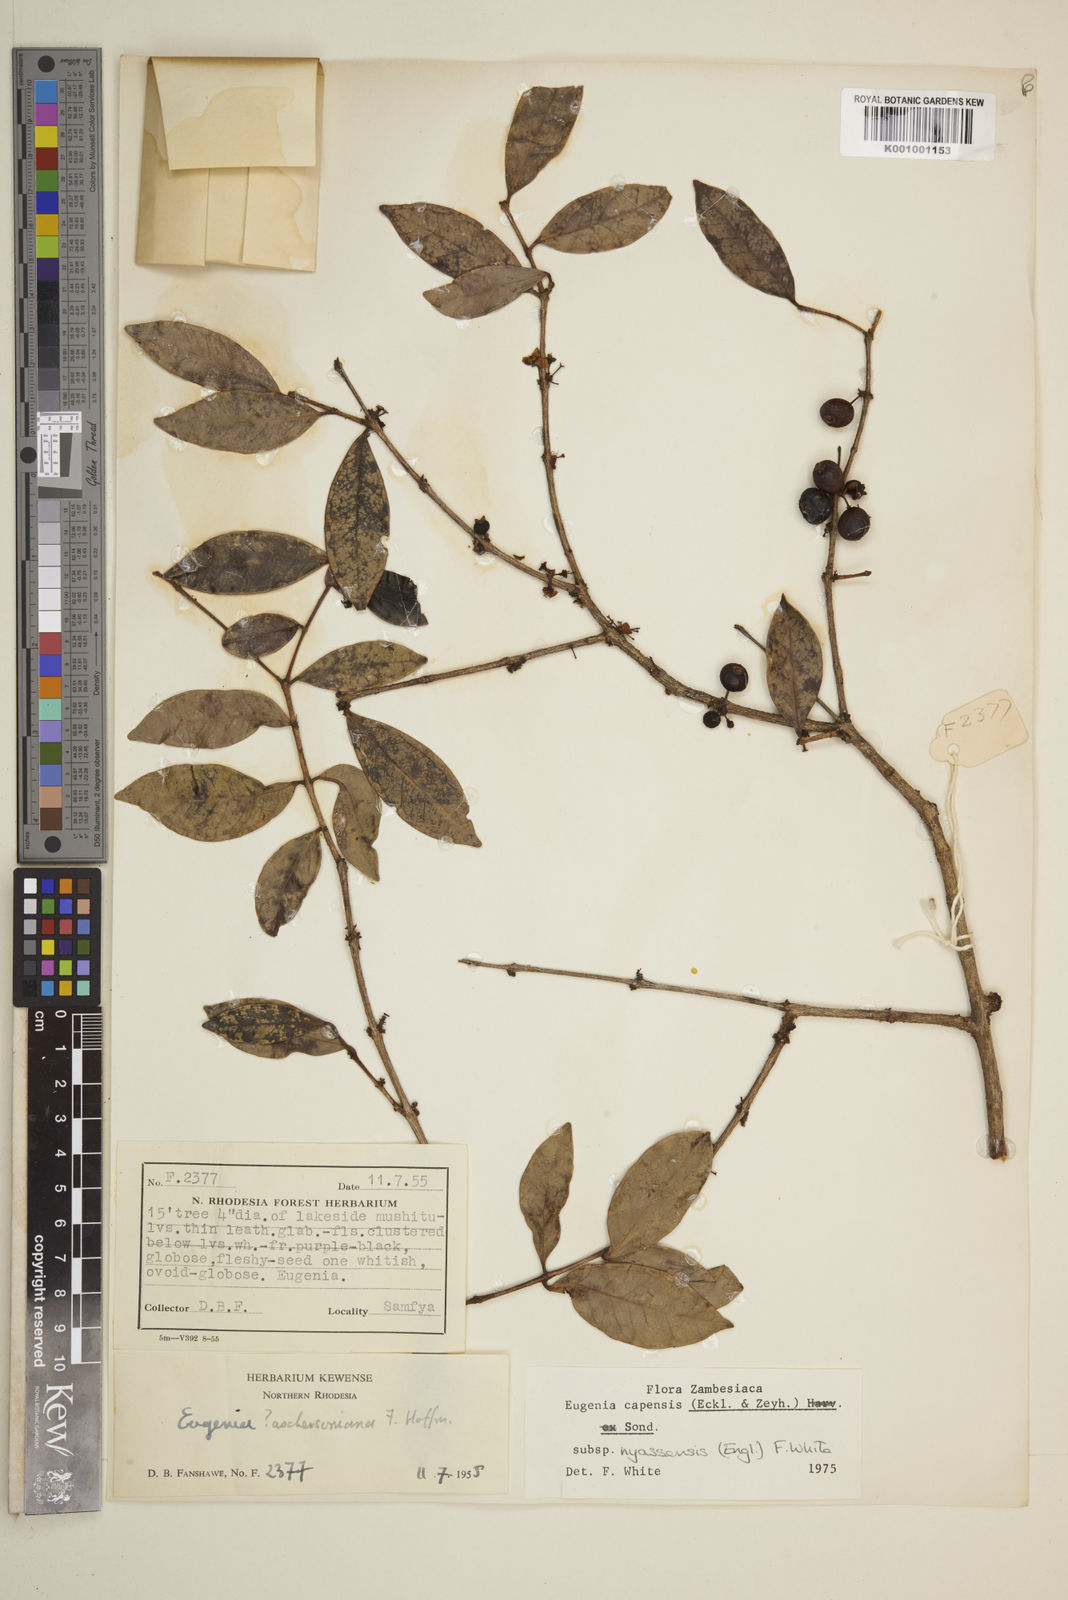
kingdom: Plantae
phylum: Tracheophyta
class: Magnoliopsida
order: Myrtales
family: Myrtaceae
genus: Eugenia
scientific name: Eugenia capensis
